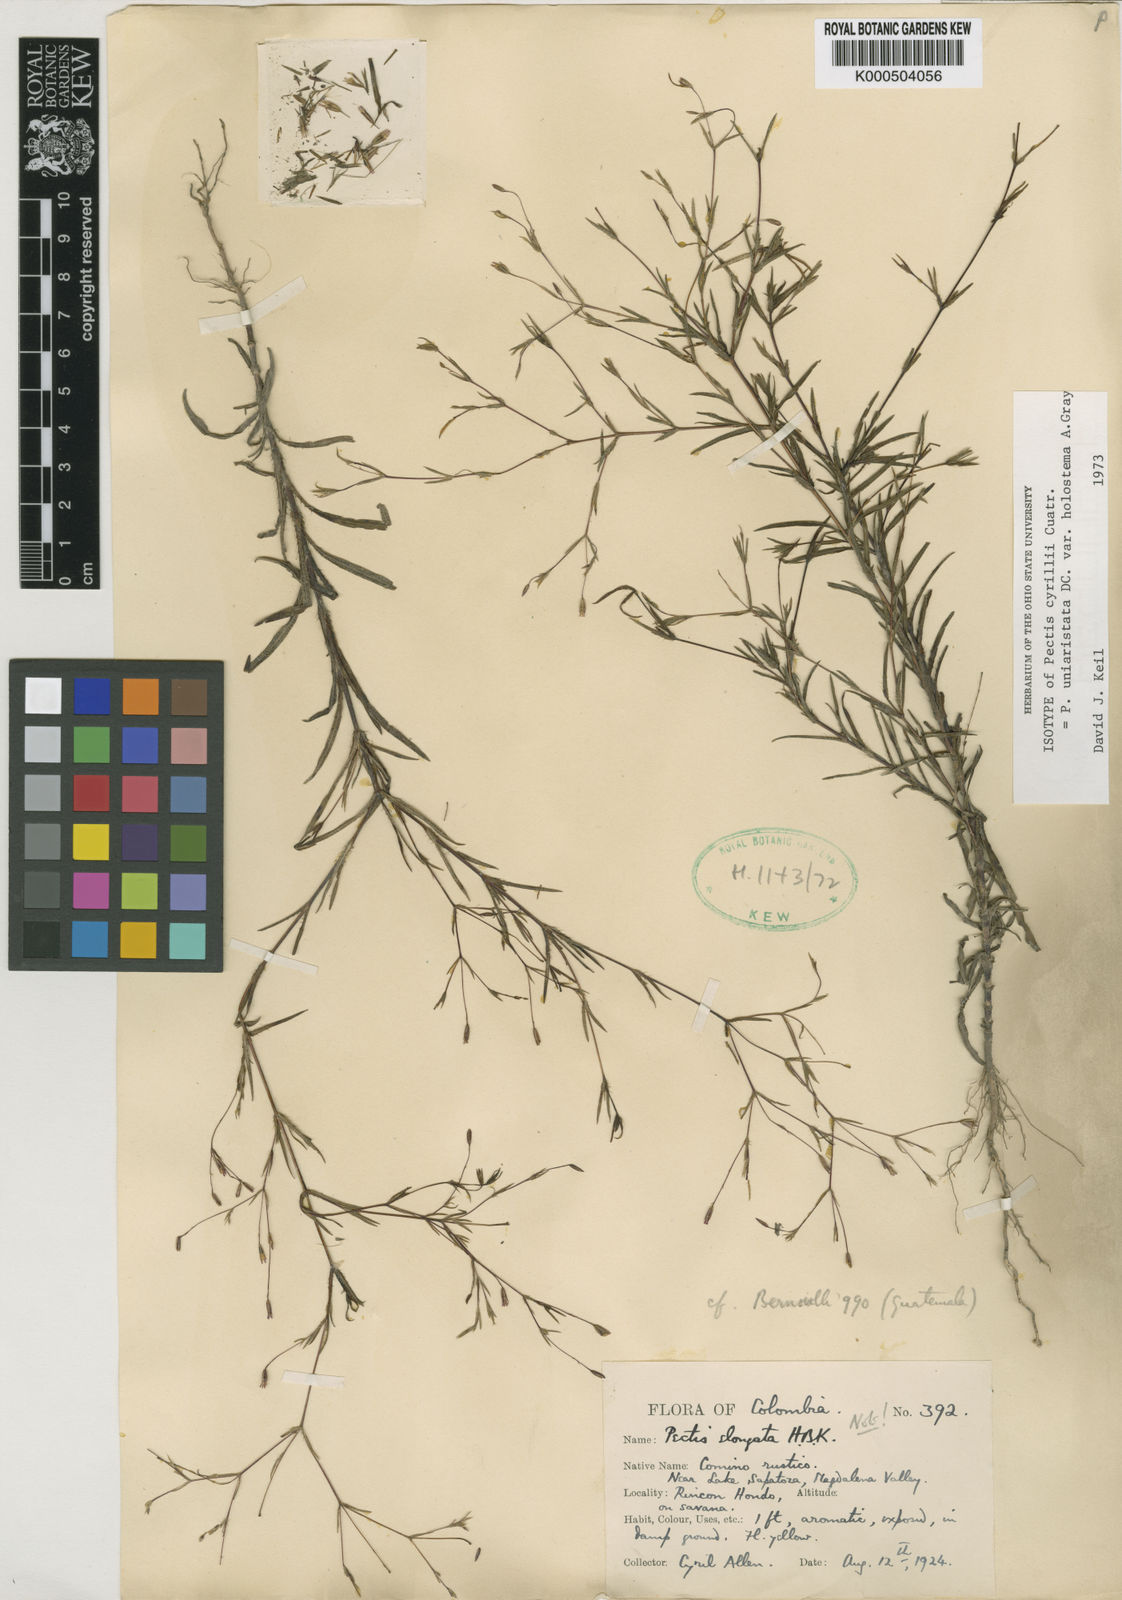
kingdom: Plantae
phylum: Tracheophyta
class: Magnoliopsida
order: Asterales
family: Asteraceae
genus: Pectis
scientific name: Pectis uniaristata
